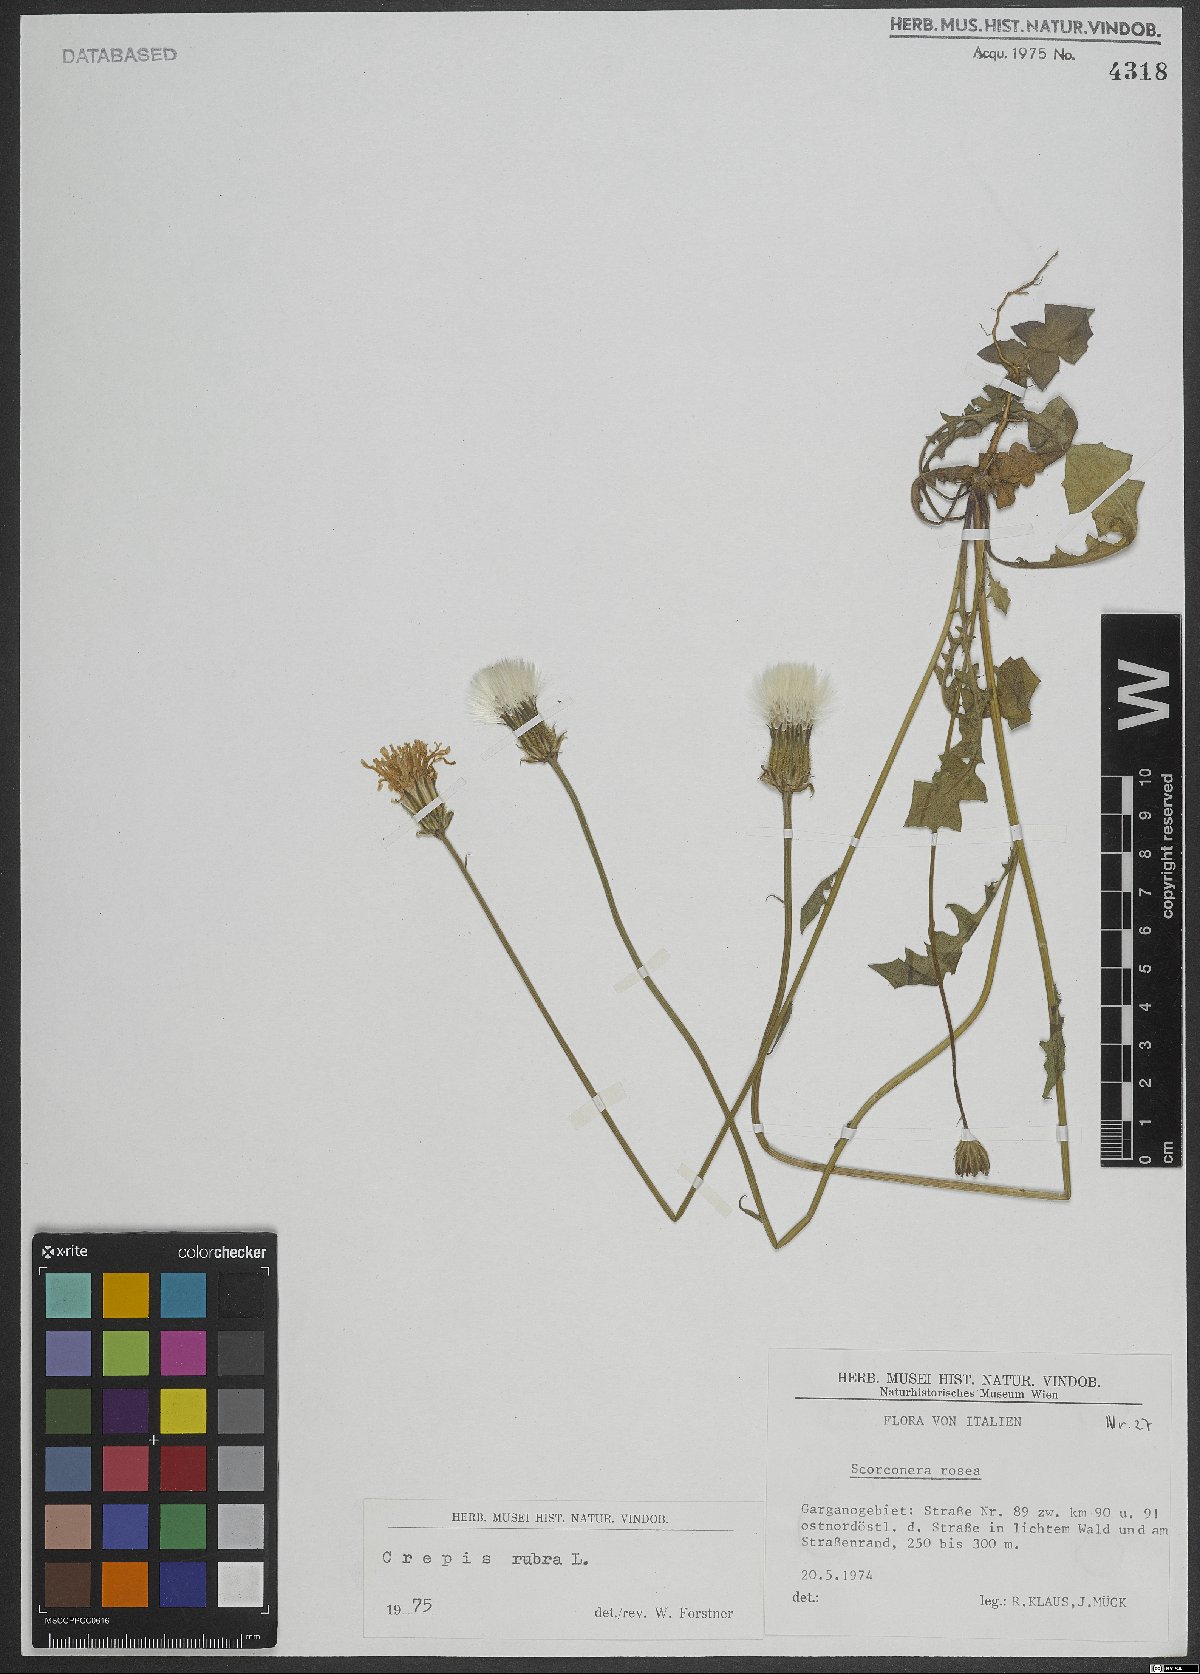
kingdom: Plantae
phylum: Tracheophyta
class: Magnoliopsida
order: Asterales
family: Asteraceae
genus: Crepis
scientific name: Crepis rubra
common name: Pink hawk's-beard
